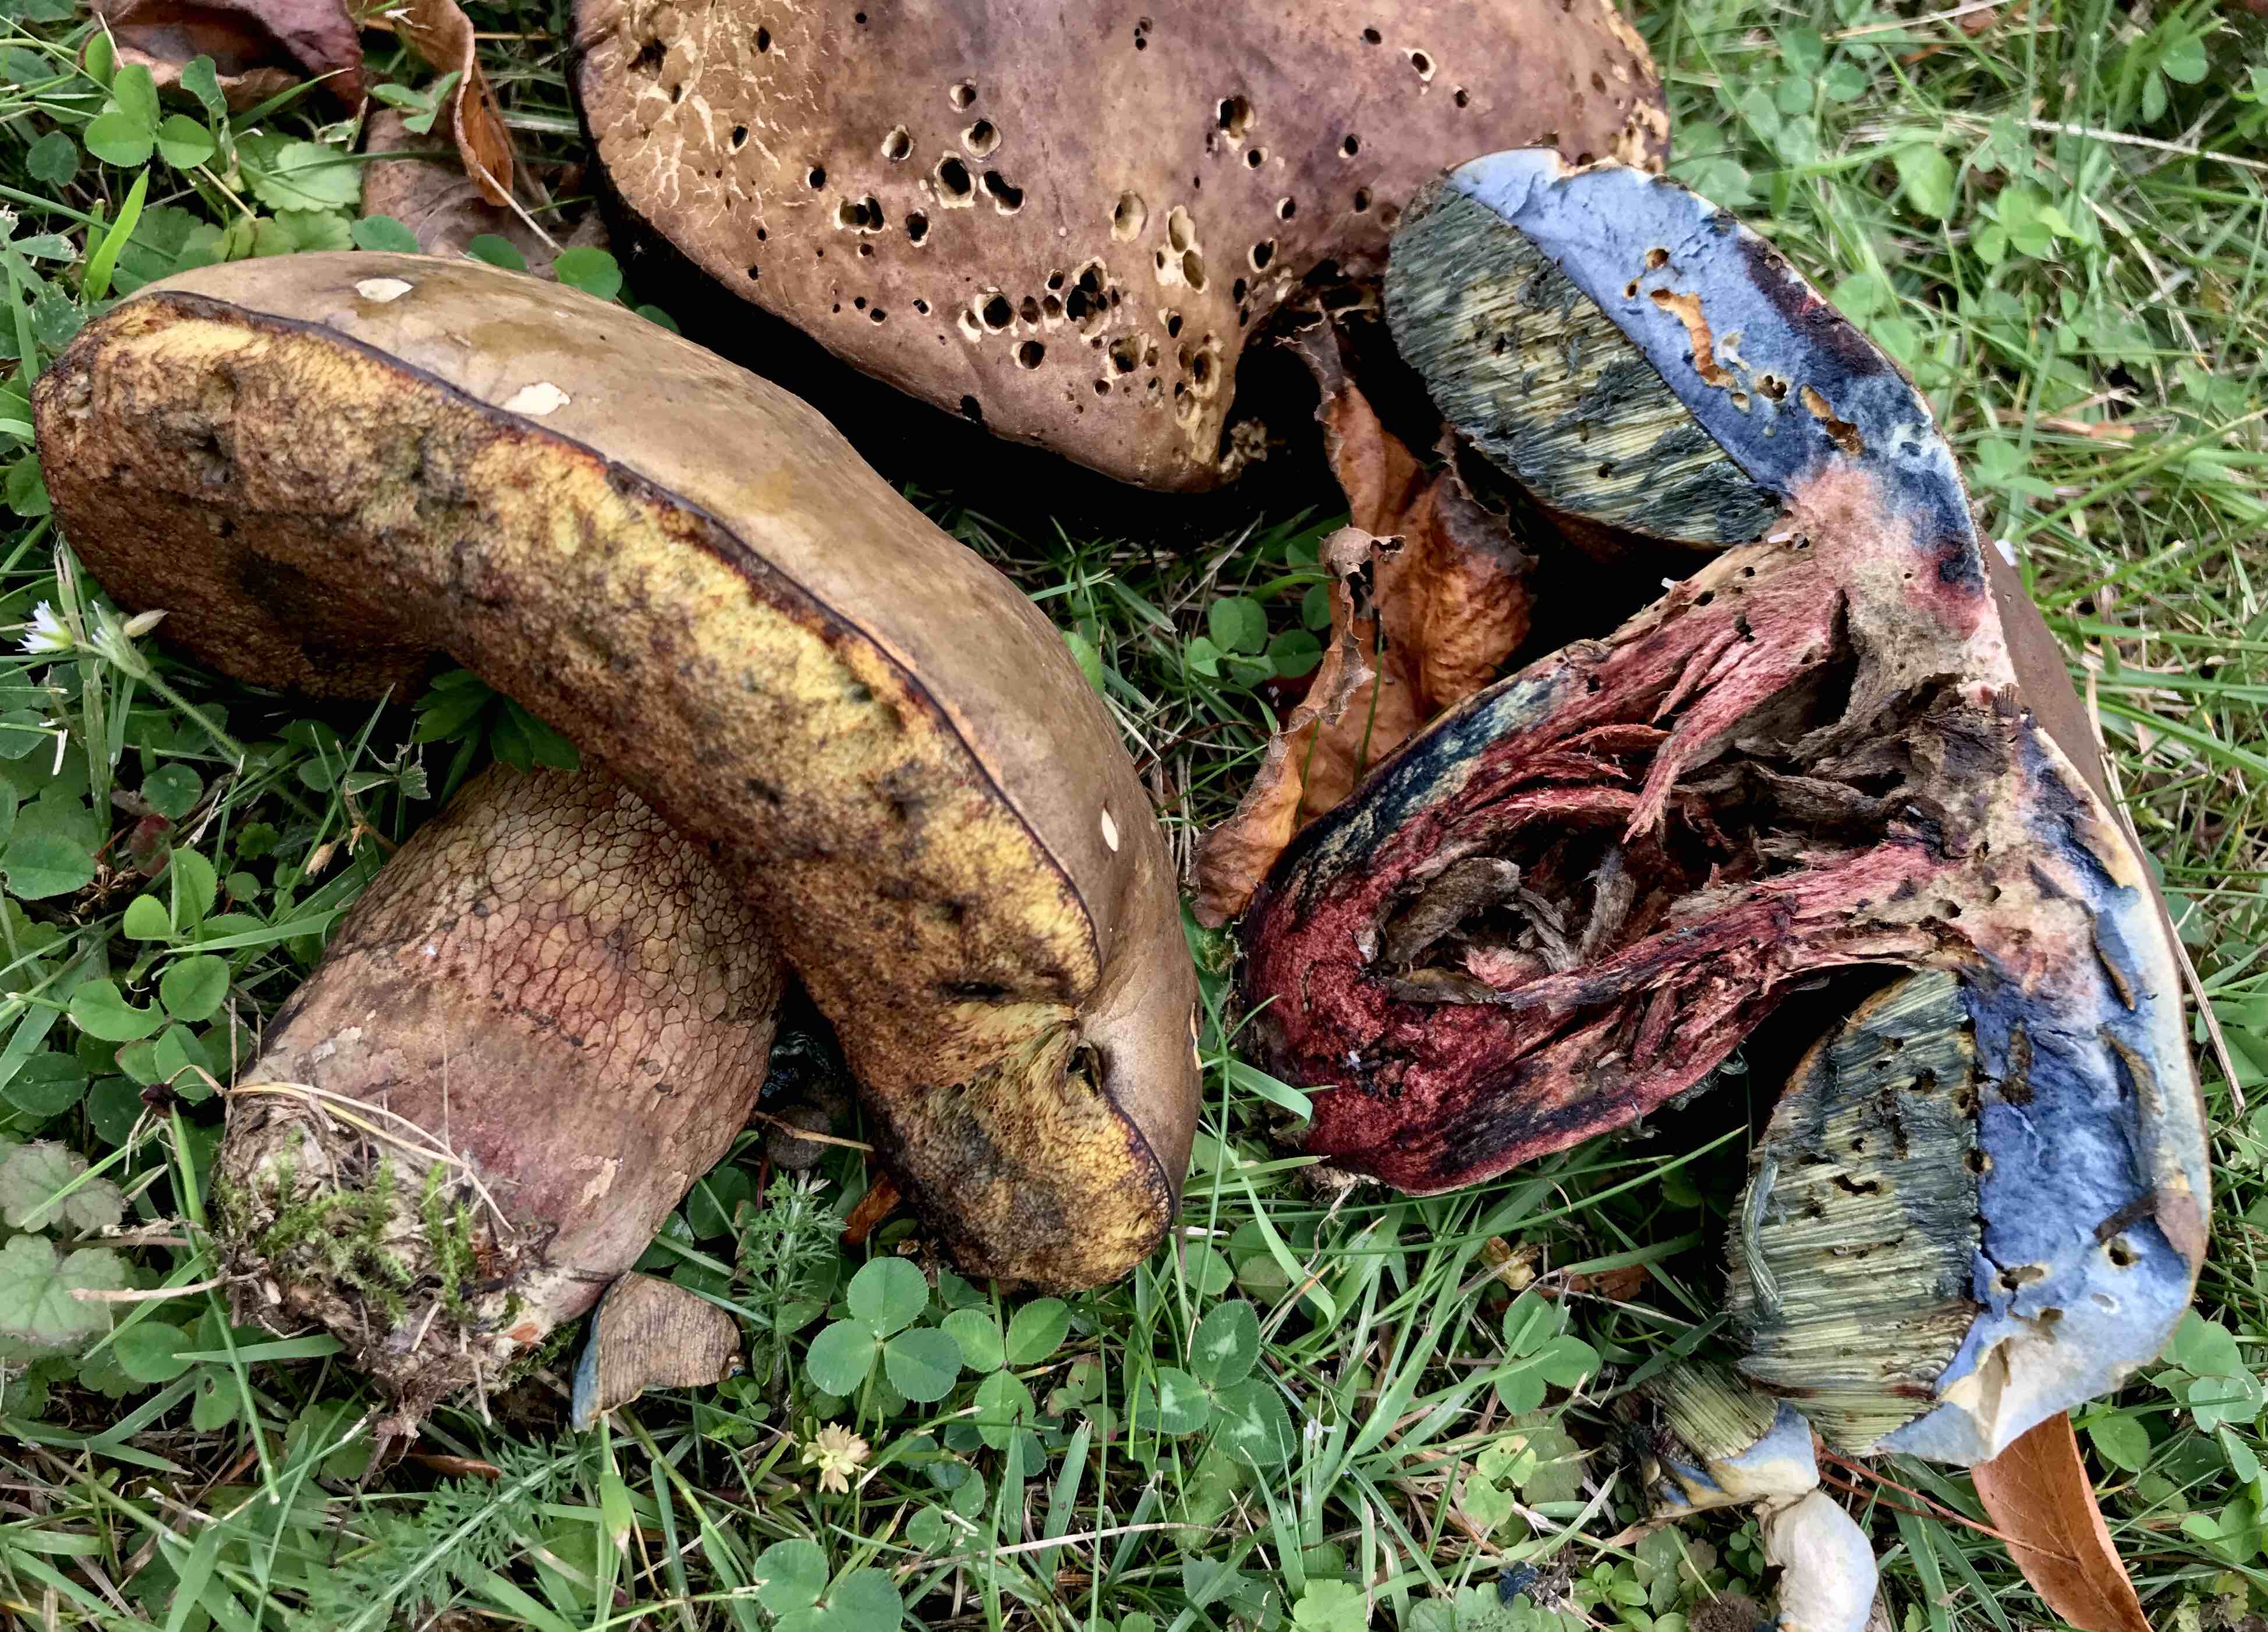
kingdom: Fungi
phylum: Basidiomycota
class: Agaricomycetes
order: Boletales
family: Boletaceae
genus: Suillellus
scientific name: Suillellus luridus
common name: netstokket indigorørhat
